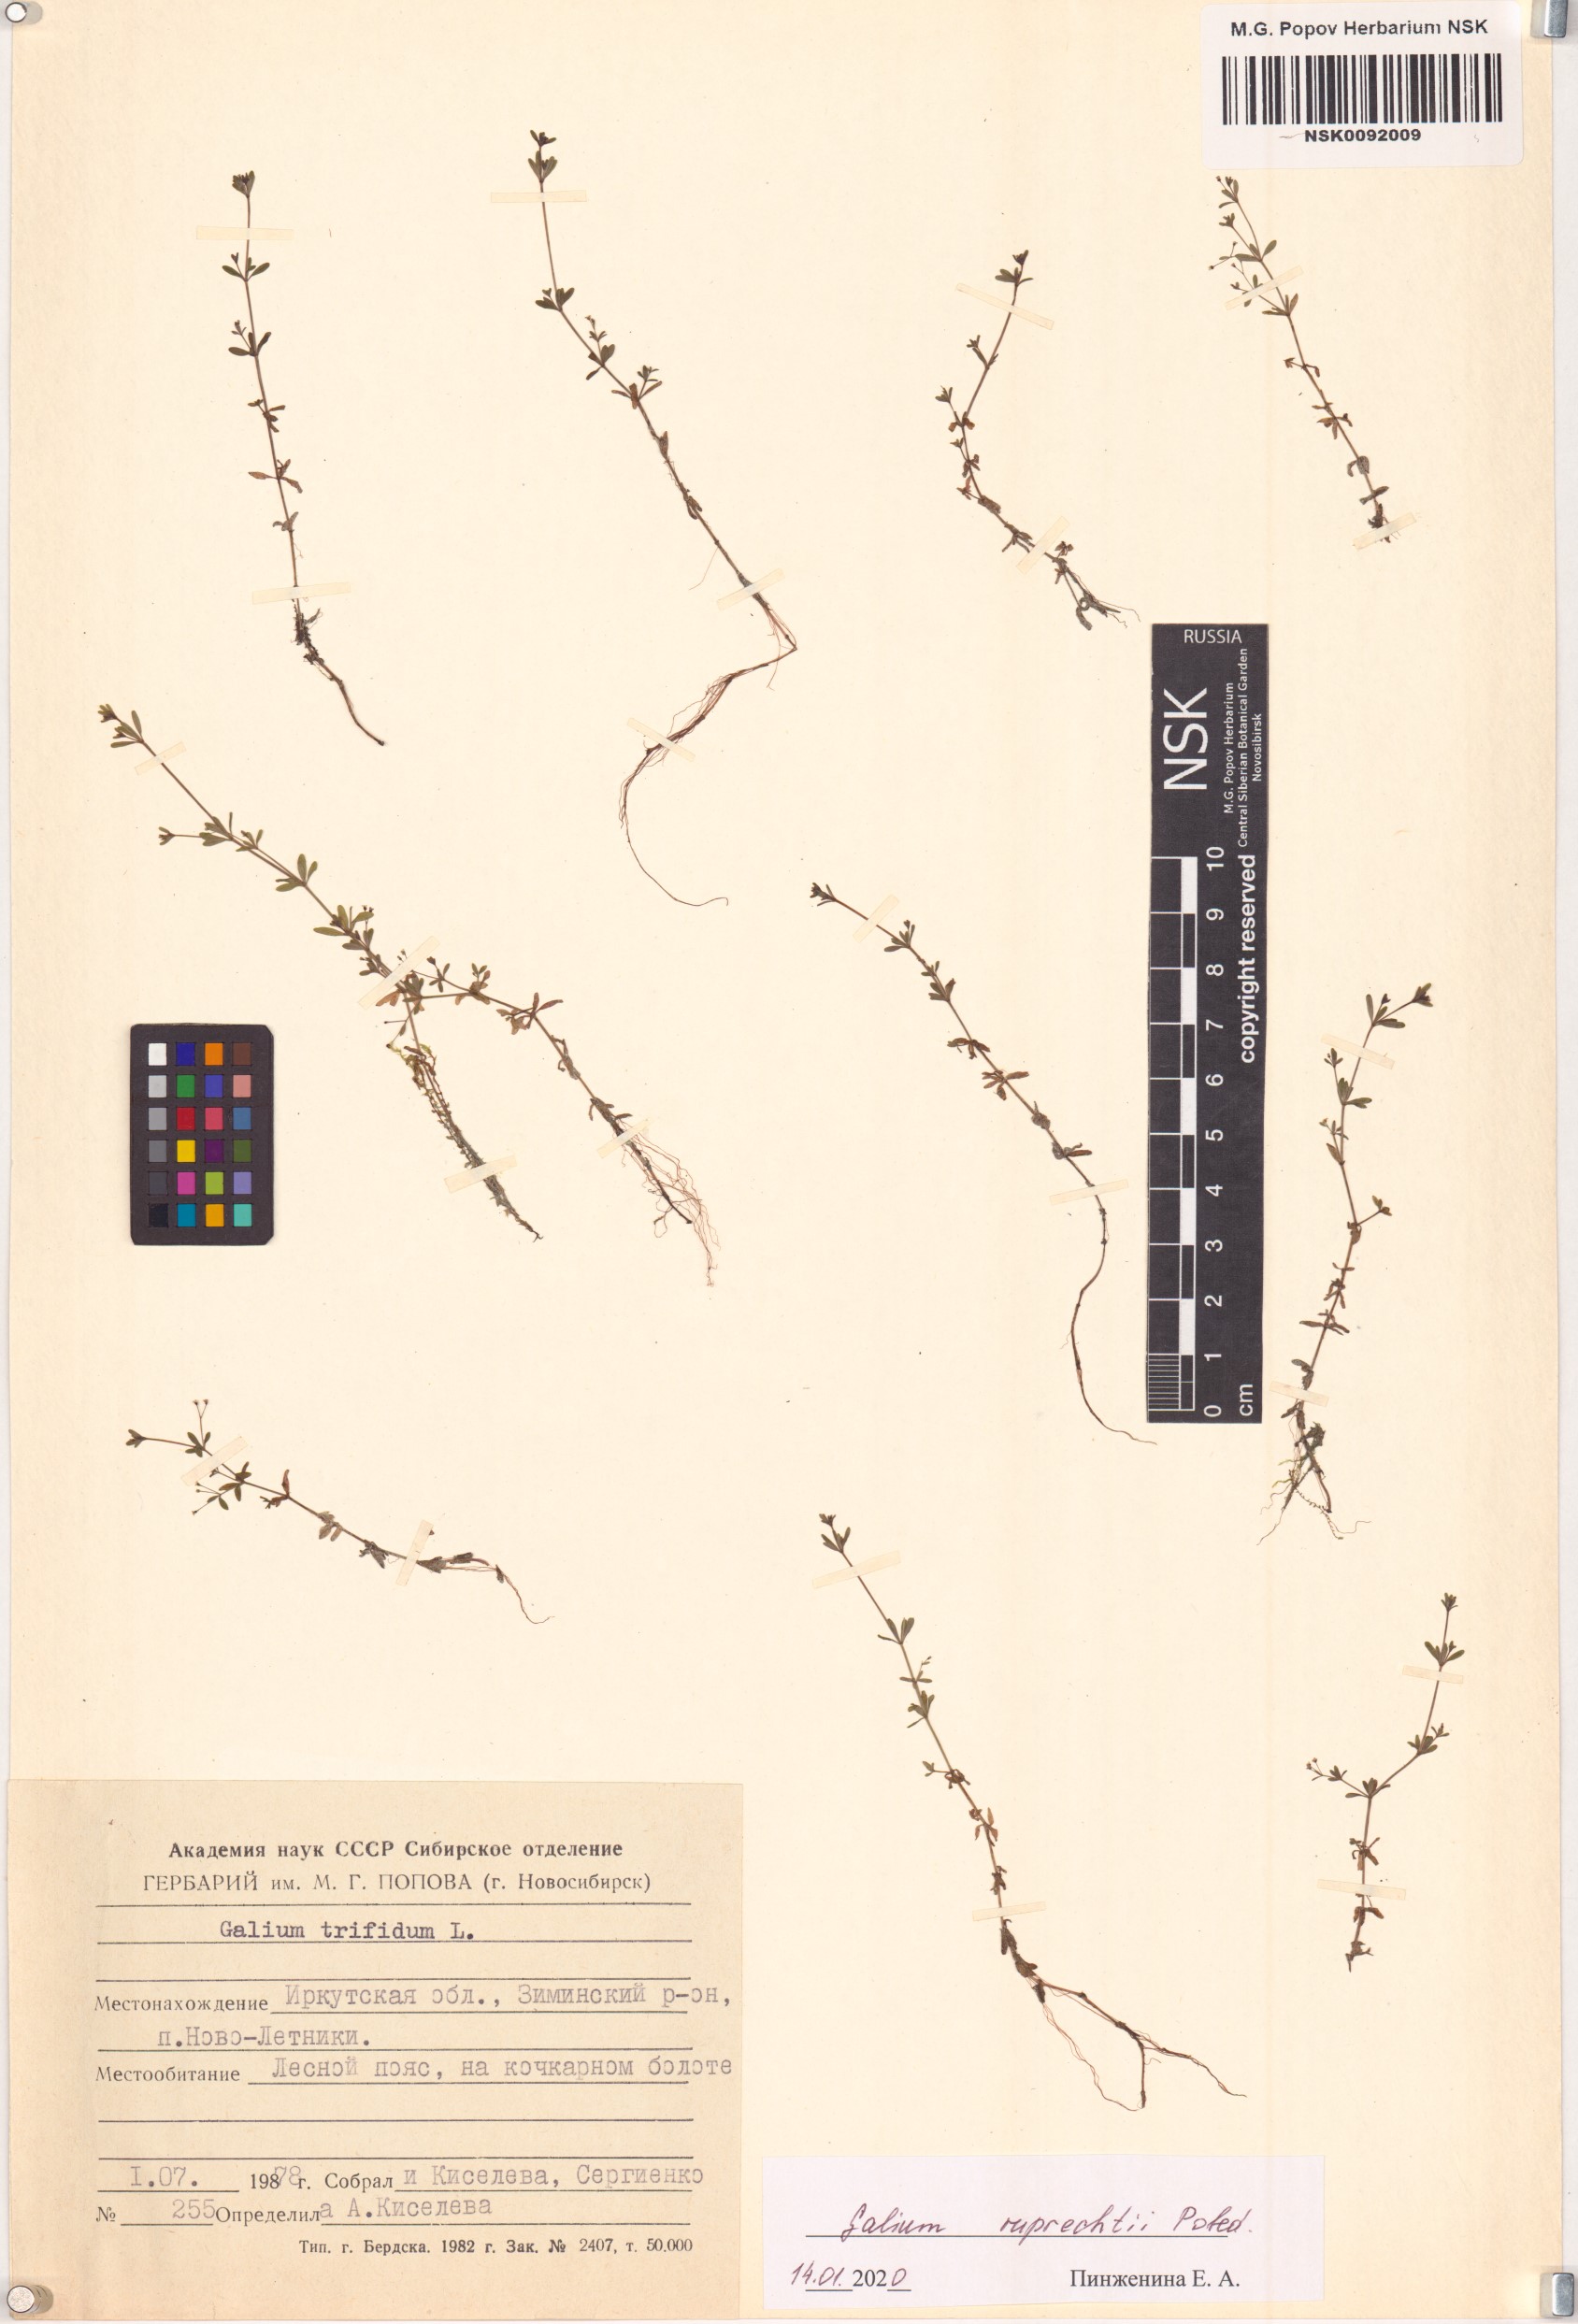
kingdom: Plantae
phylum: Tracheophyta
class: Magnoliopsida
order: Gentianales
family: Rubiaceae
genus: Galium
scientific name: Galium trifidum
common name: Small bedstraw
